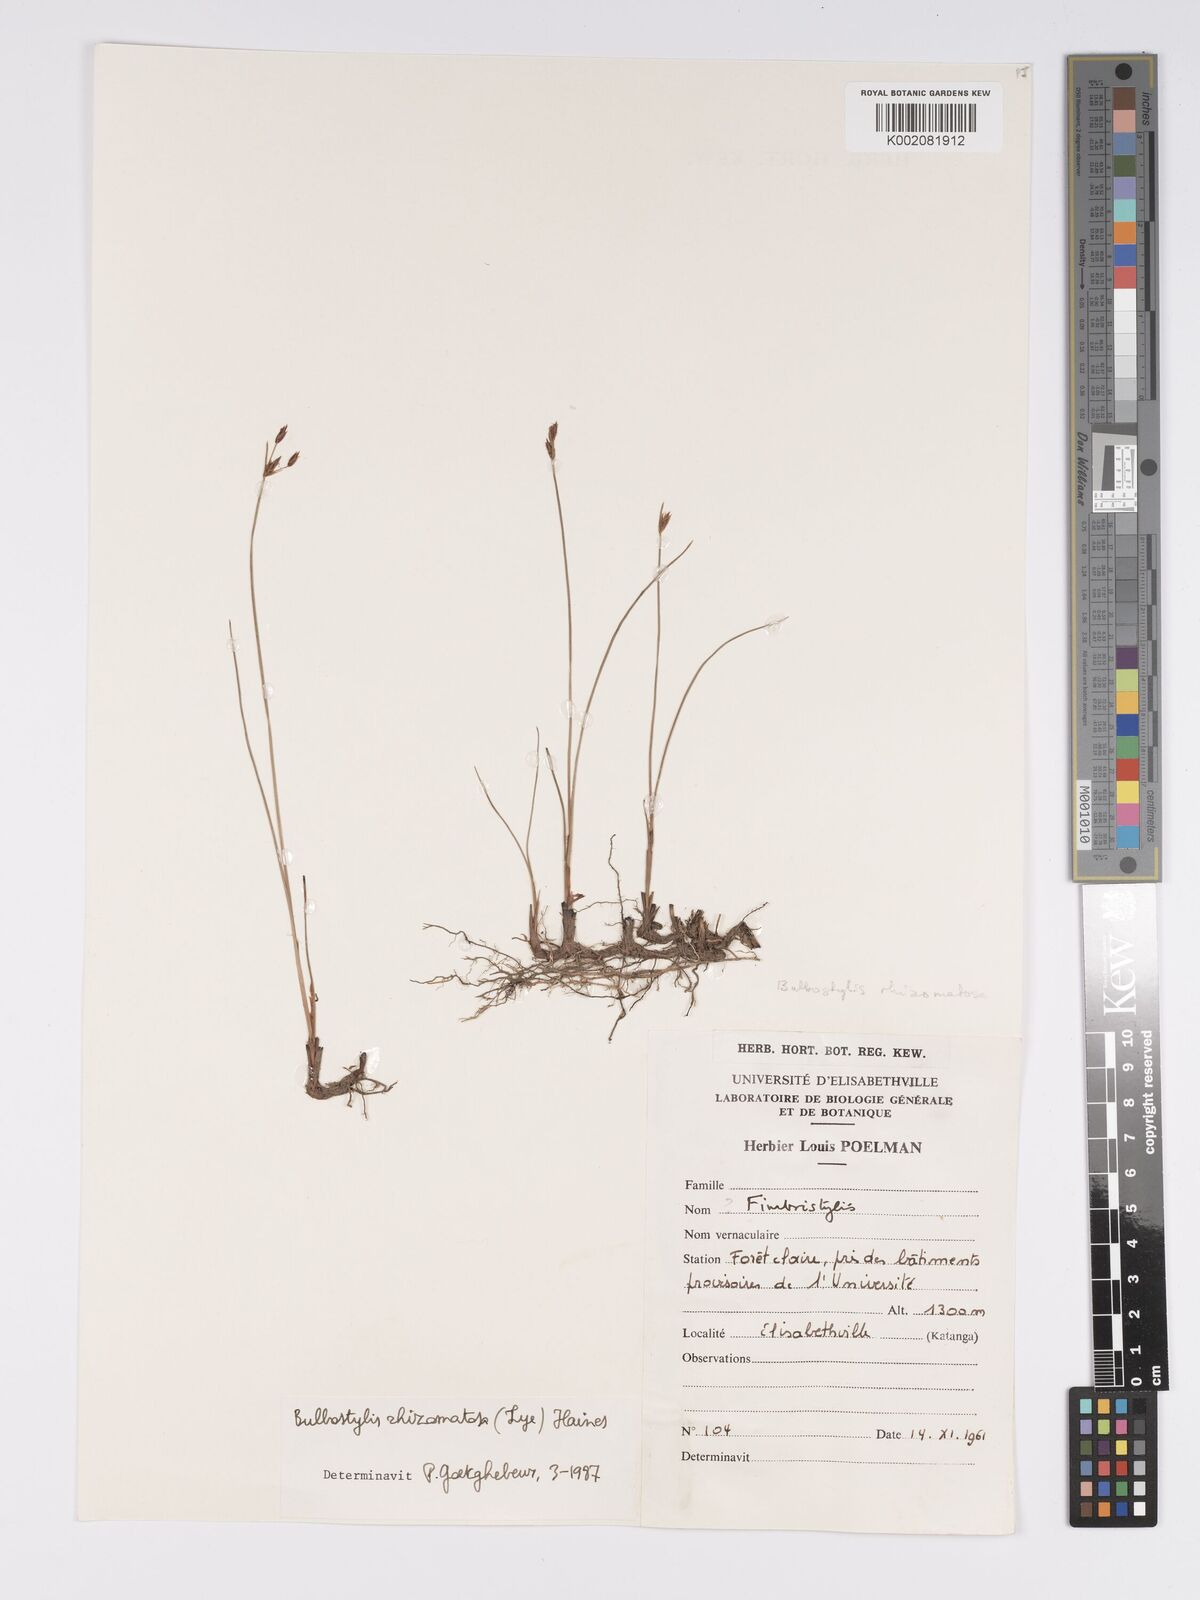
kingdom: Plantae
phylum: Tracheophyta
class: Liliopsida
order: Poales
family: Cyperaceae
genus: Bulbostylis
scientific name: Bulbostylis rhizomatosa
